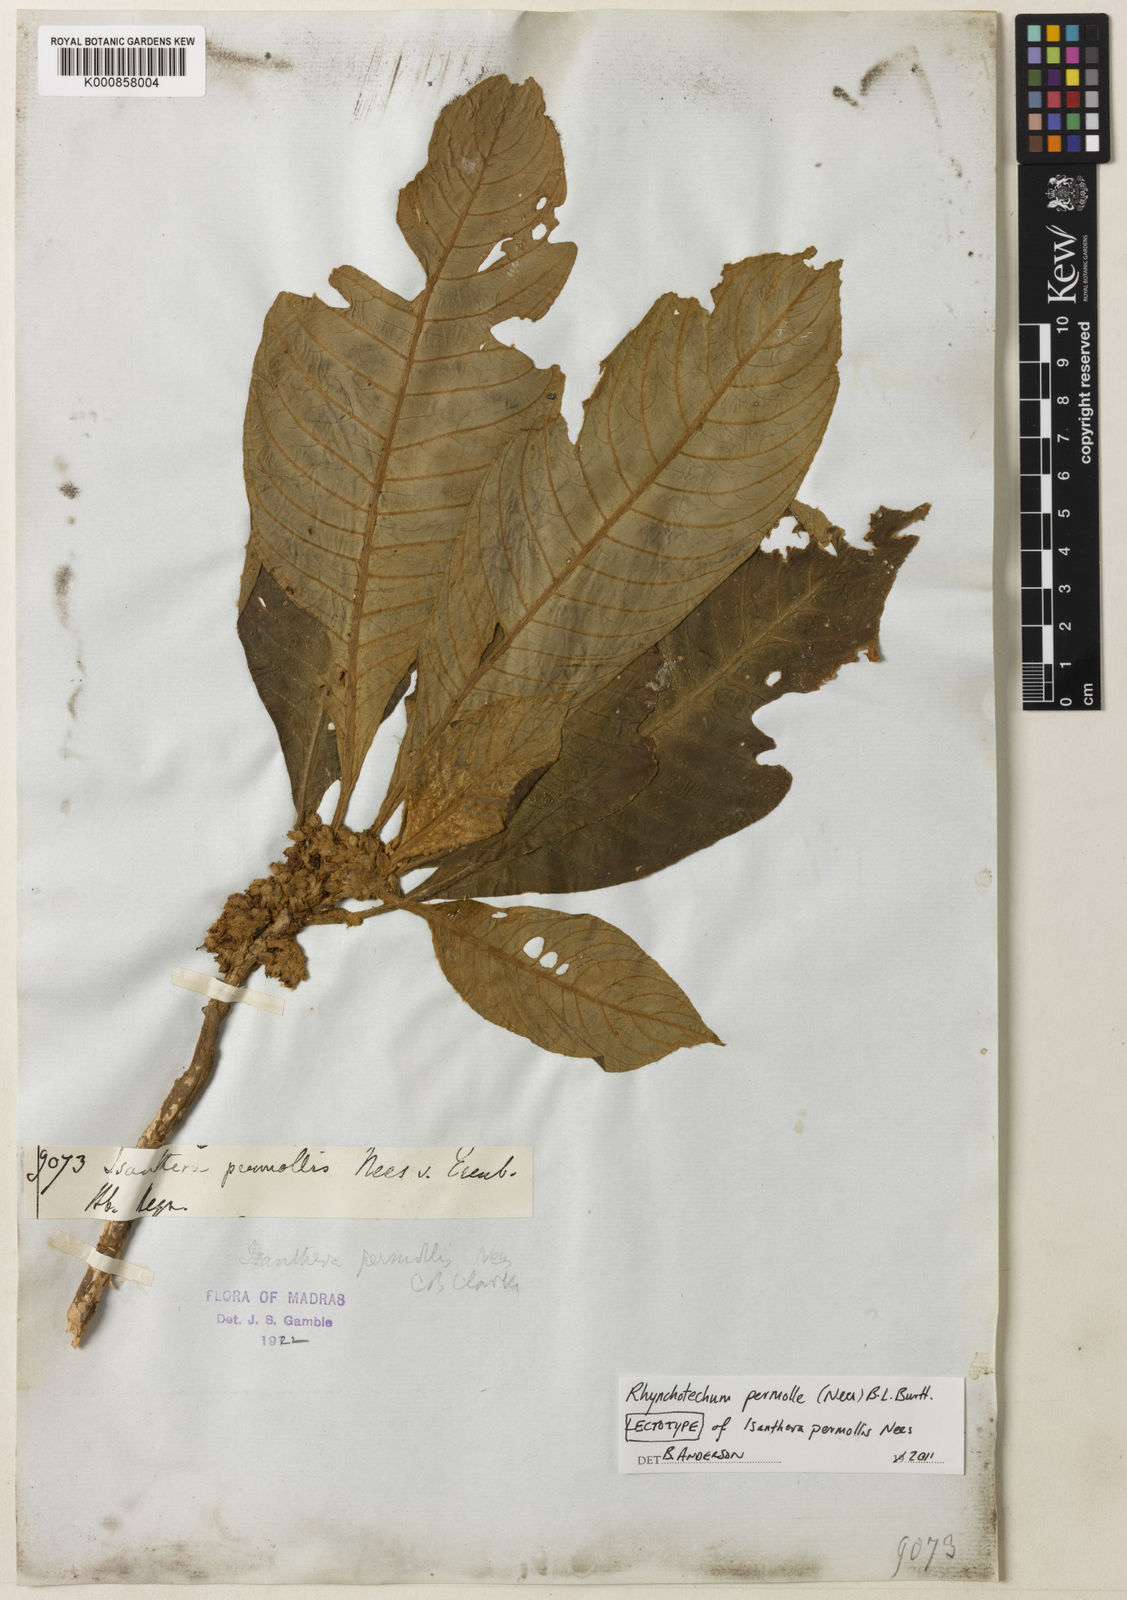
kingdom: Plantae
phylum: Tracheophyta
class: Magnoliopsida
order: Lamiales
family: Gesneriaceae
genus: Rhynchotechum
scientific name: Rhynchotechum permolle
